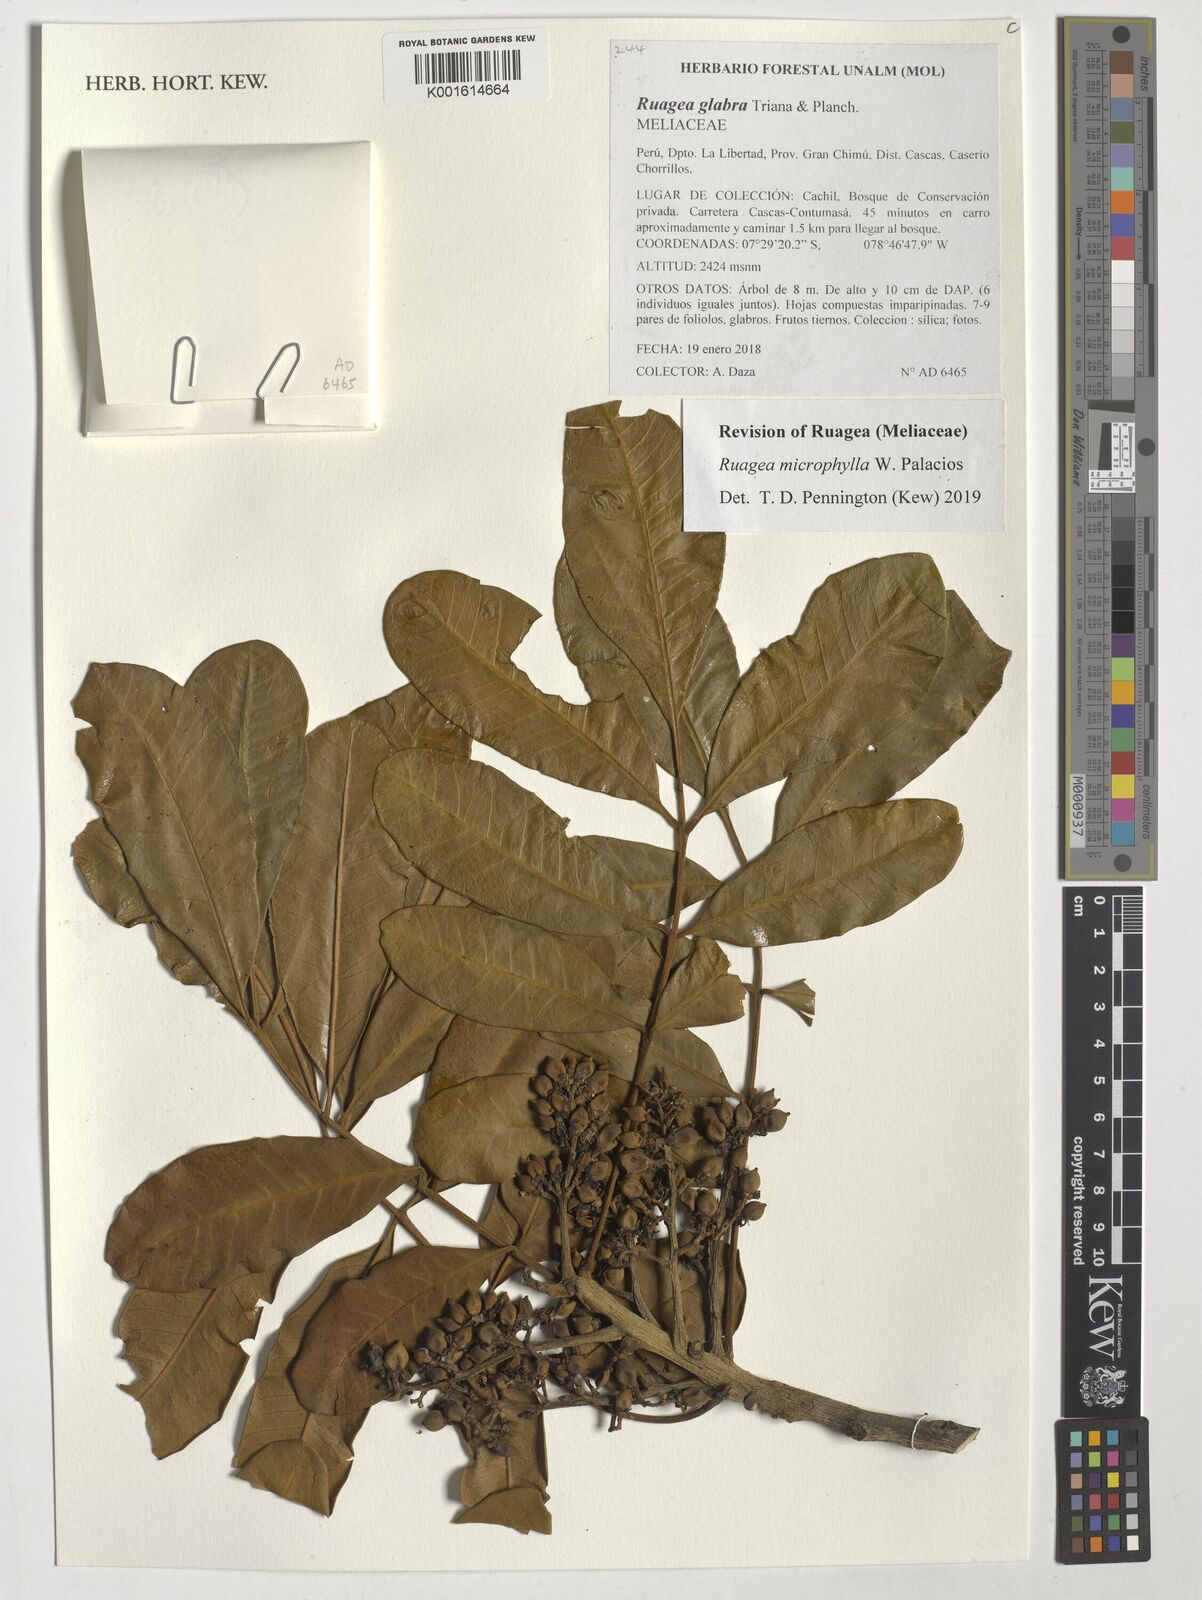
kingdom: Plantae
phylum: Tracheophyta
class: Magnoliopsida
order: Sapindales
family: Meliaceae
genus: Ruagea
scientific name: Ruagea microphylla
